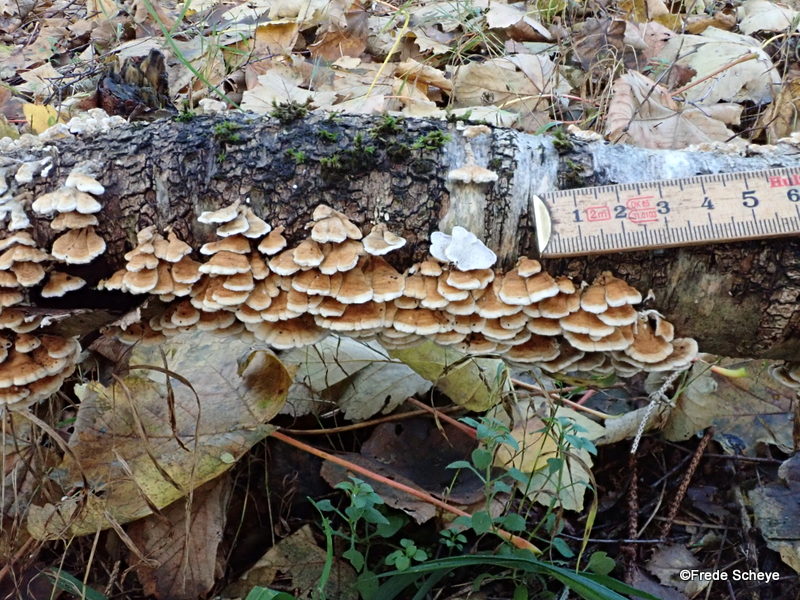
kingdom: Fungi
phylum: Basidiomycota
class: Agaricomycetes
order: Amylocorticiales
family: Amylocorticiaceae
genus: Plicaturopsis
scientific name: Plicaturopsis crispa
